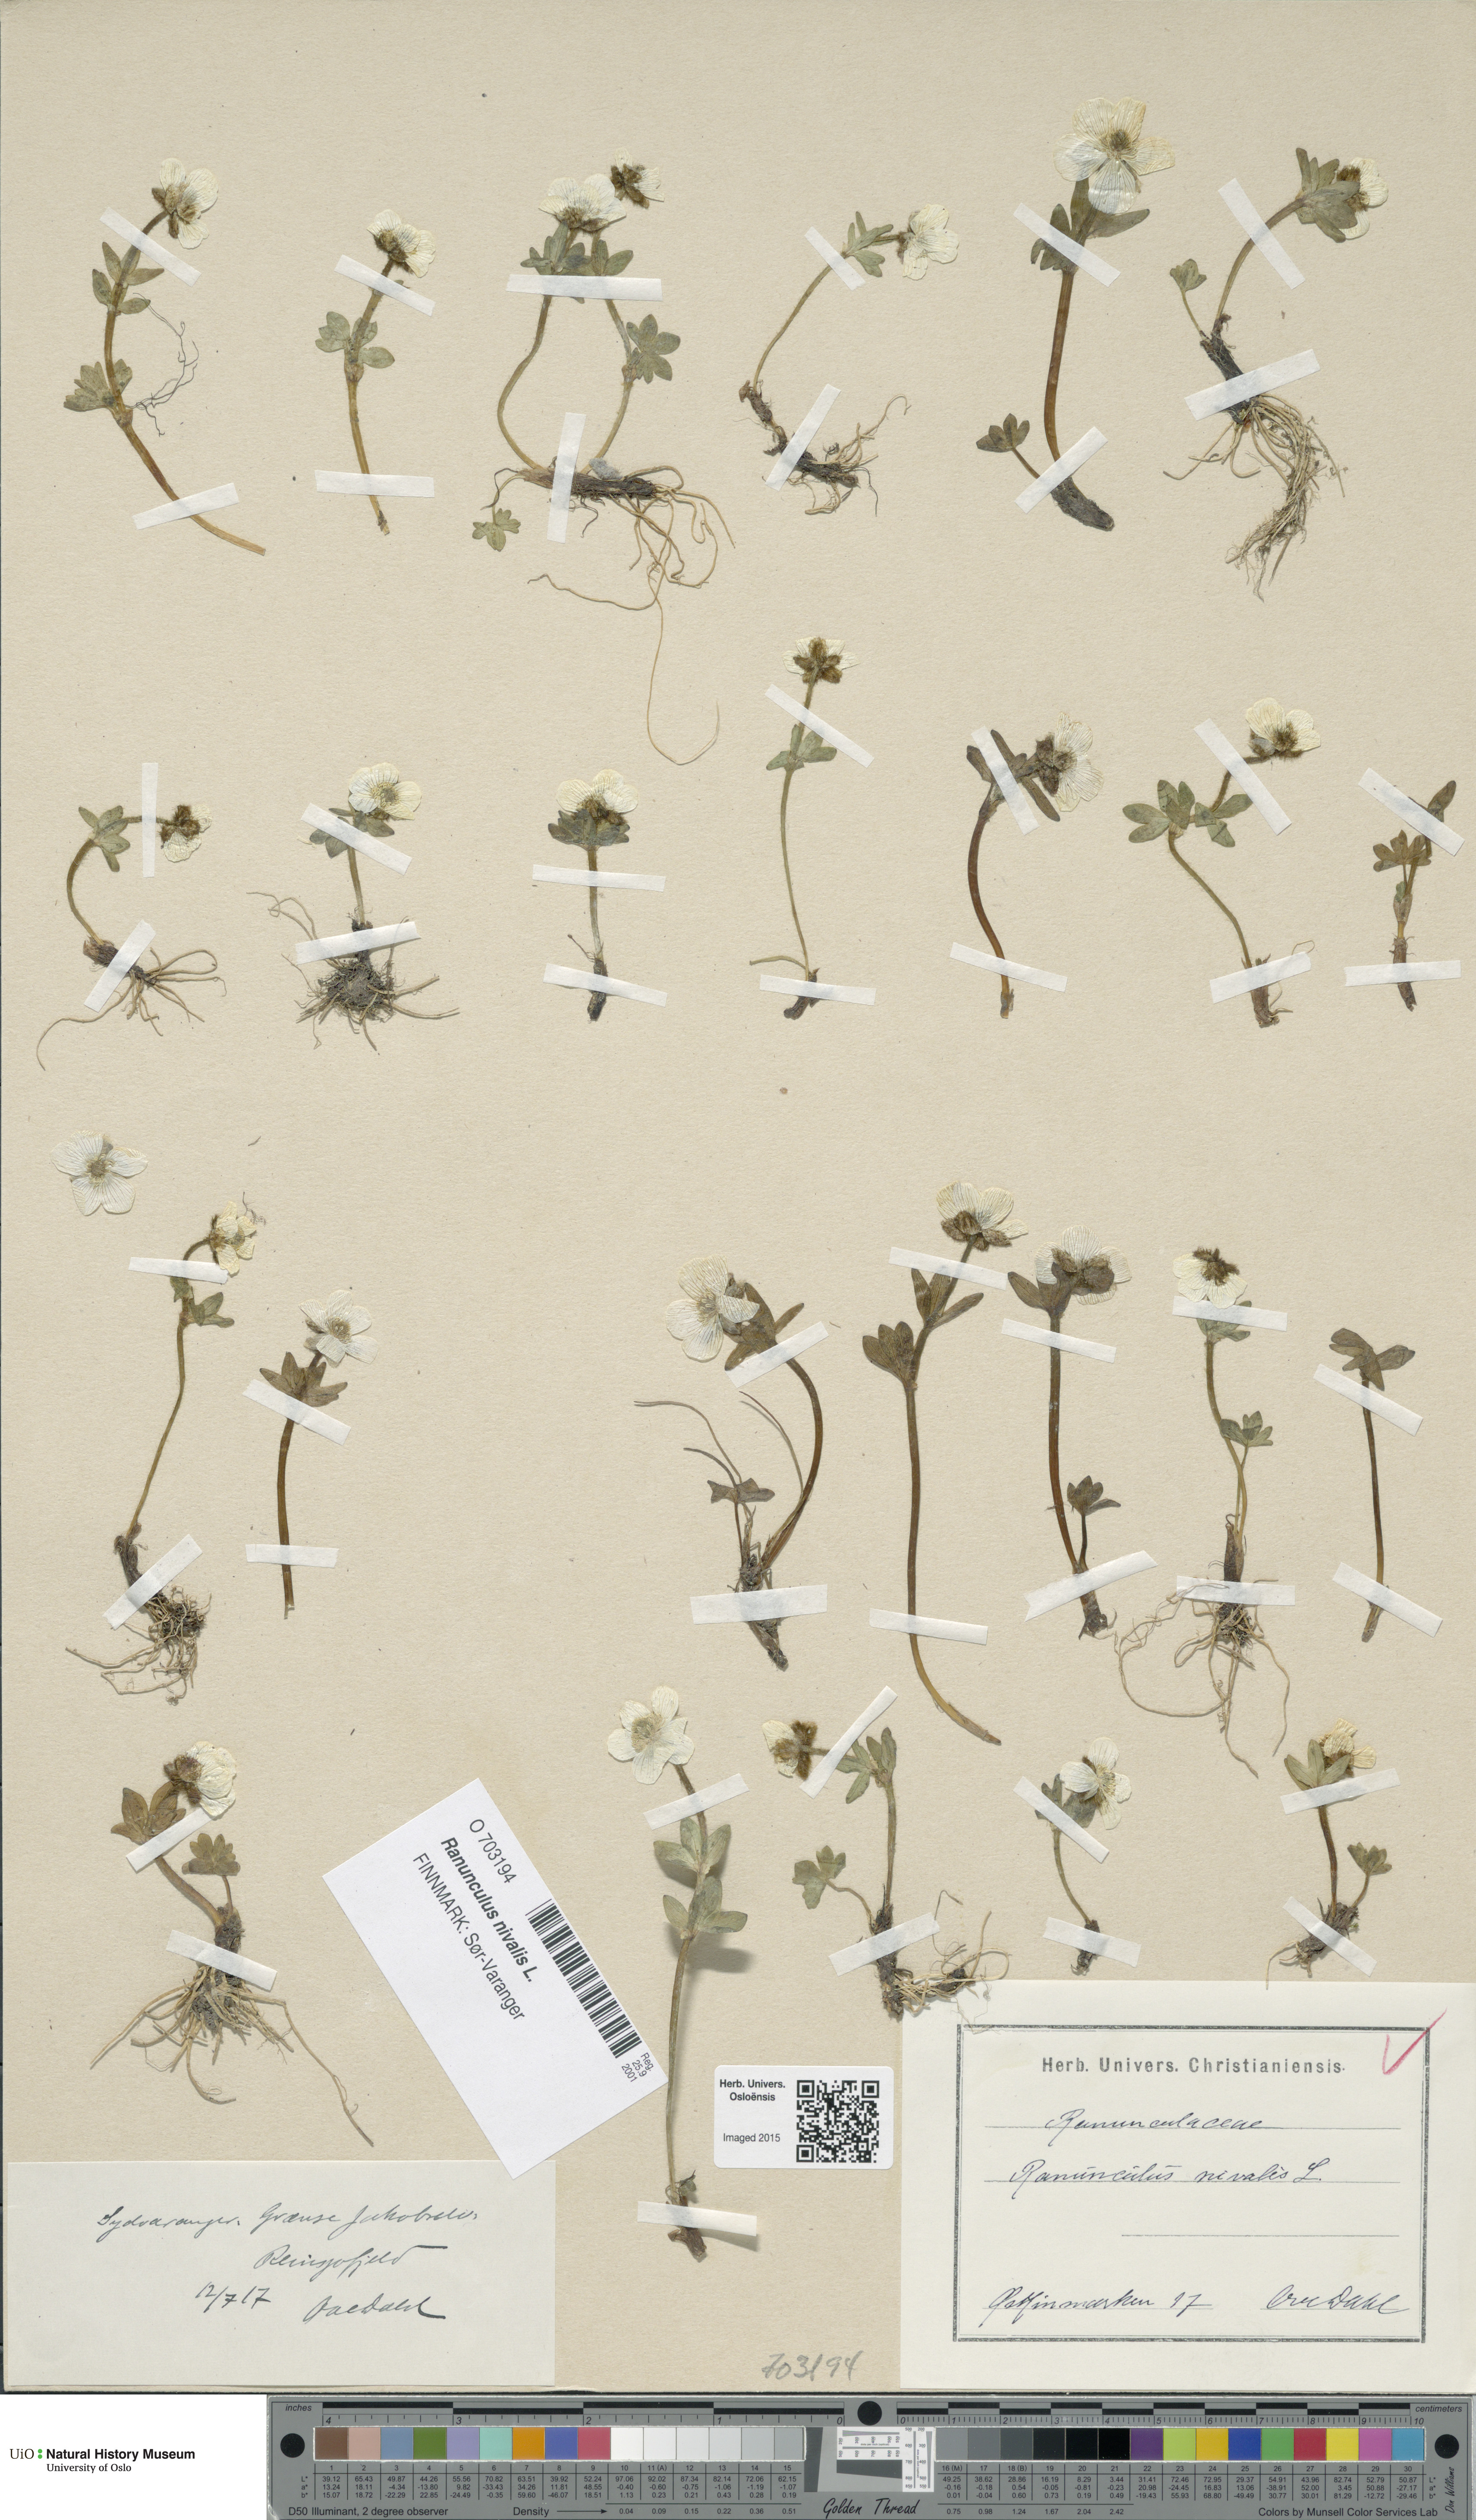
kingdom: Plantae
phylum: Tracheophyta
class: Magnoliopsida
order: Ranunculales
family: Ranunculaceae
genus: Ranunculus
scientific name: Ranunculus nivalis
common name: Snow buttercup
